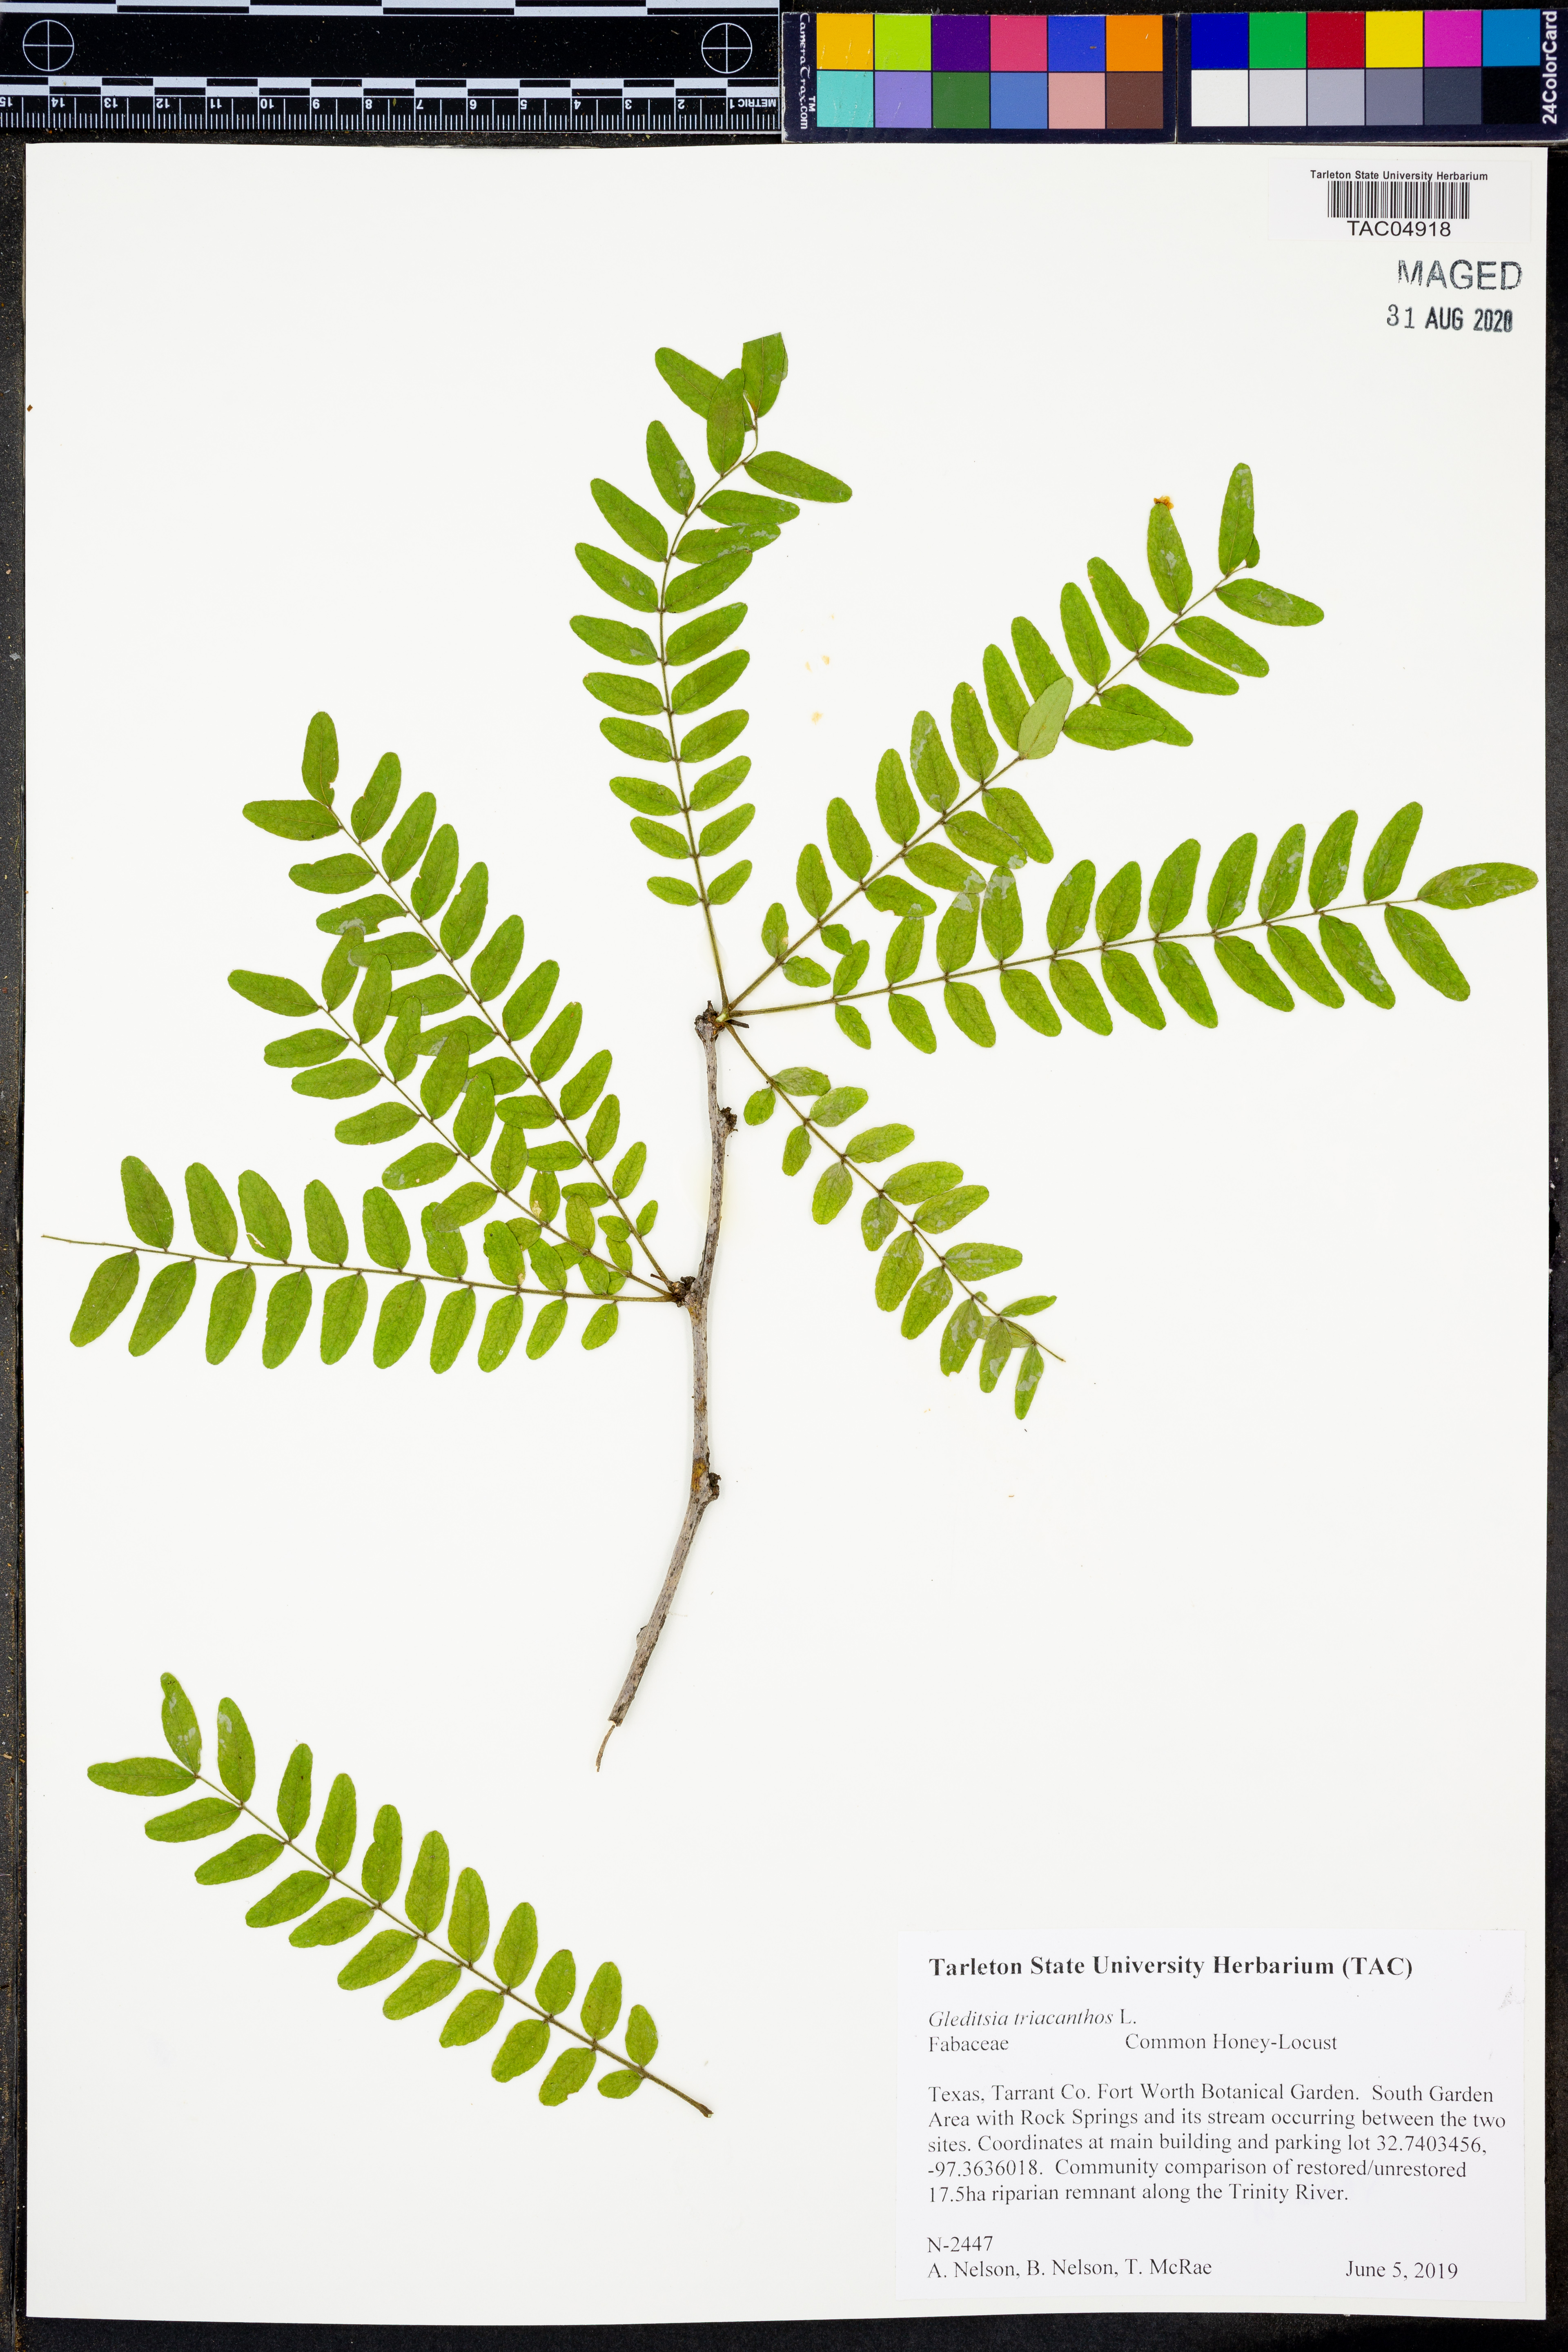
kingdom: Plantae
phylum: Tracheophyta
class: Magnoliopsida
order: Fabales
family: Fabaceae
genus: Gleditsia
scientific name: Gleditsia triacanthos
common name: Common honeylocust
